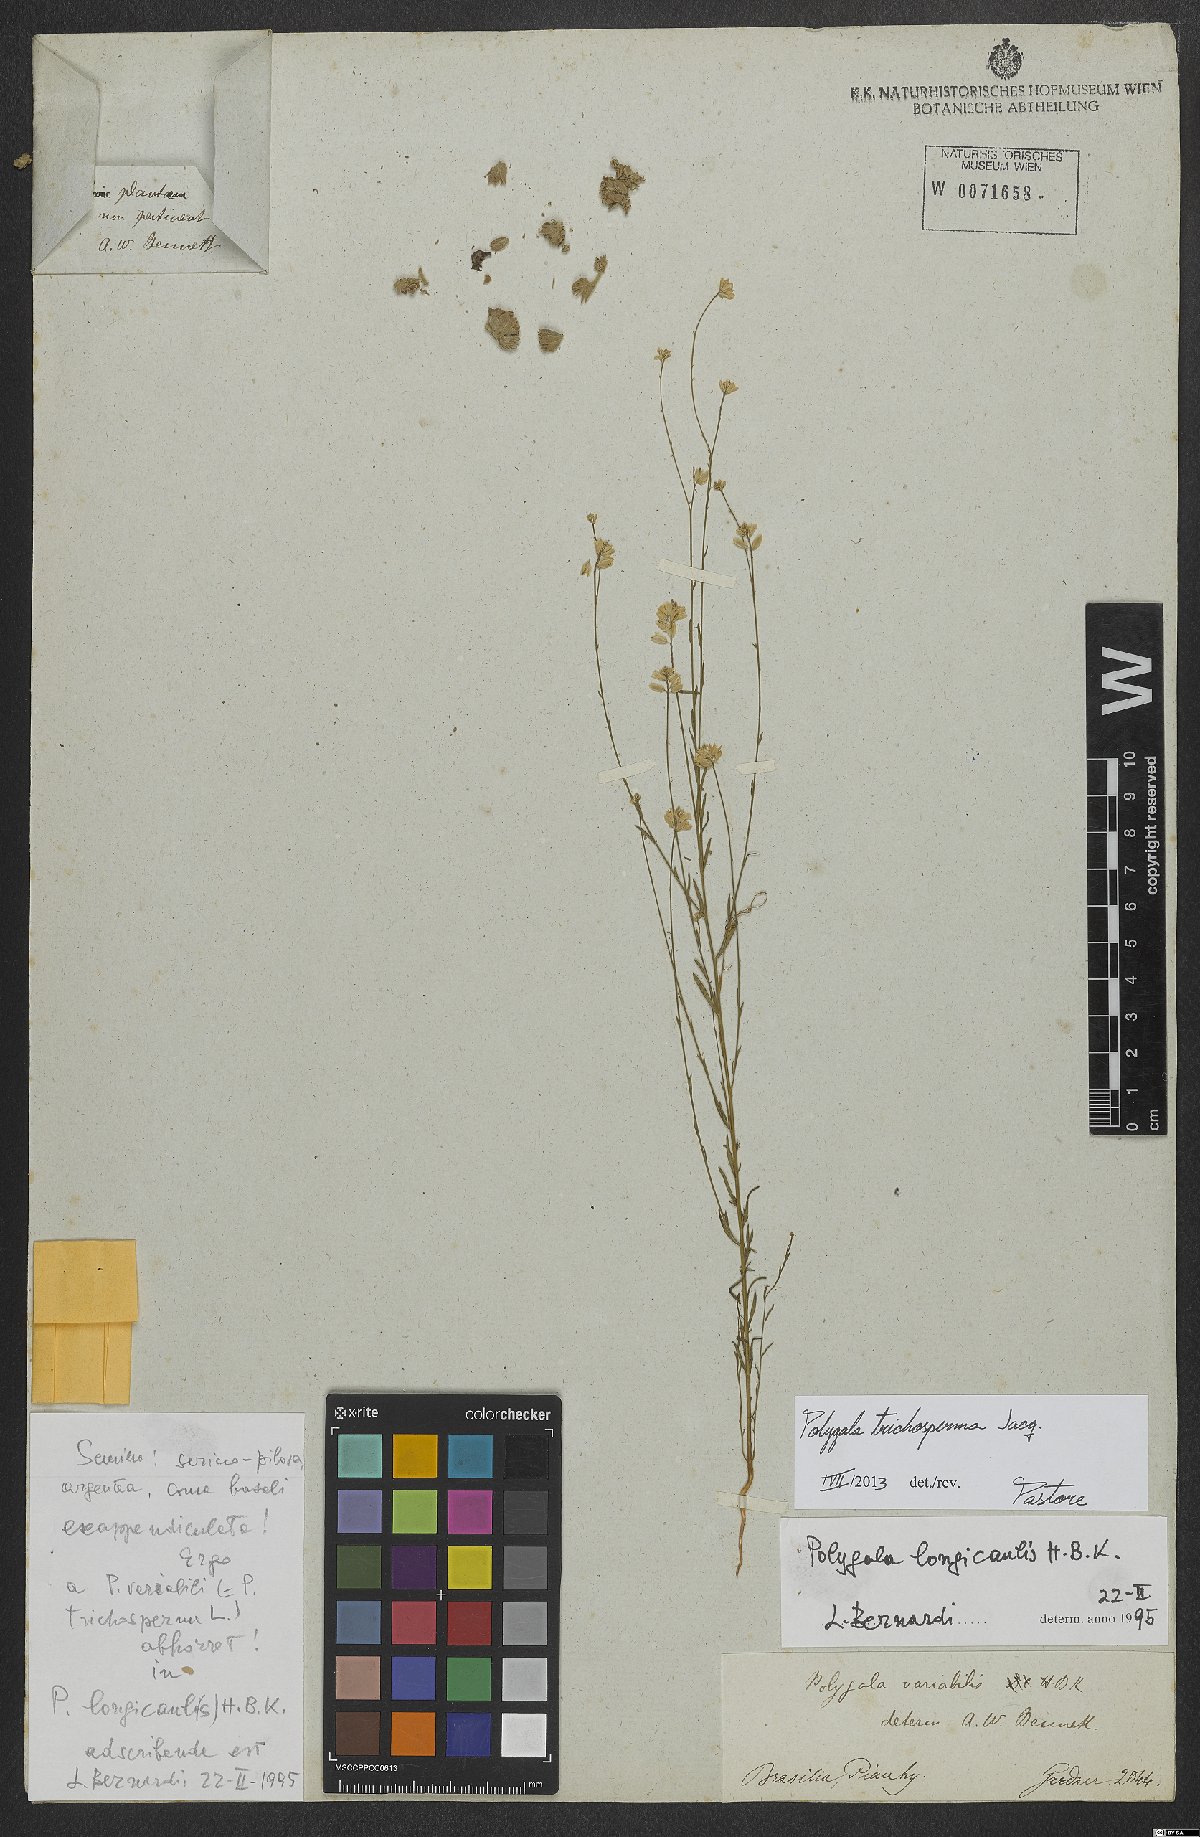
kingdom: Plantae
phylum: Tracheophyta
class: Magnoliopsida
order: Fabales
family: Polygalaceae
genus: Polygala
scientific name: Polygala trichosperma
